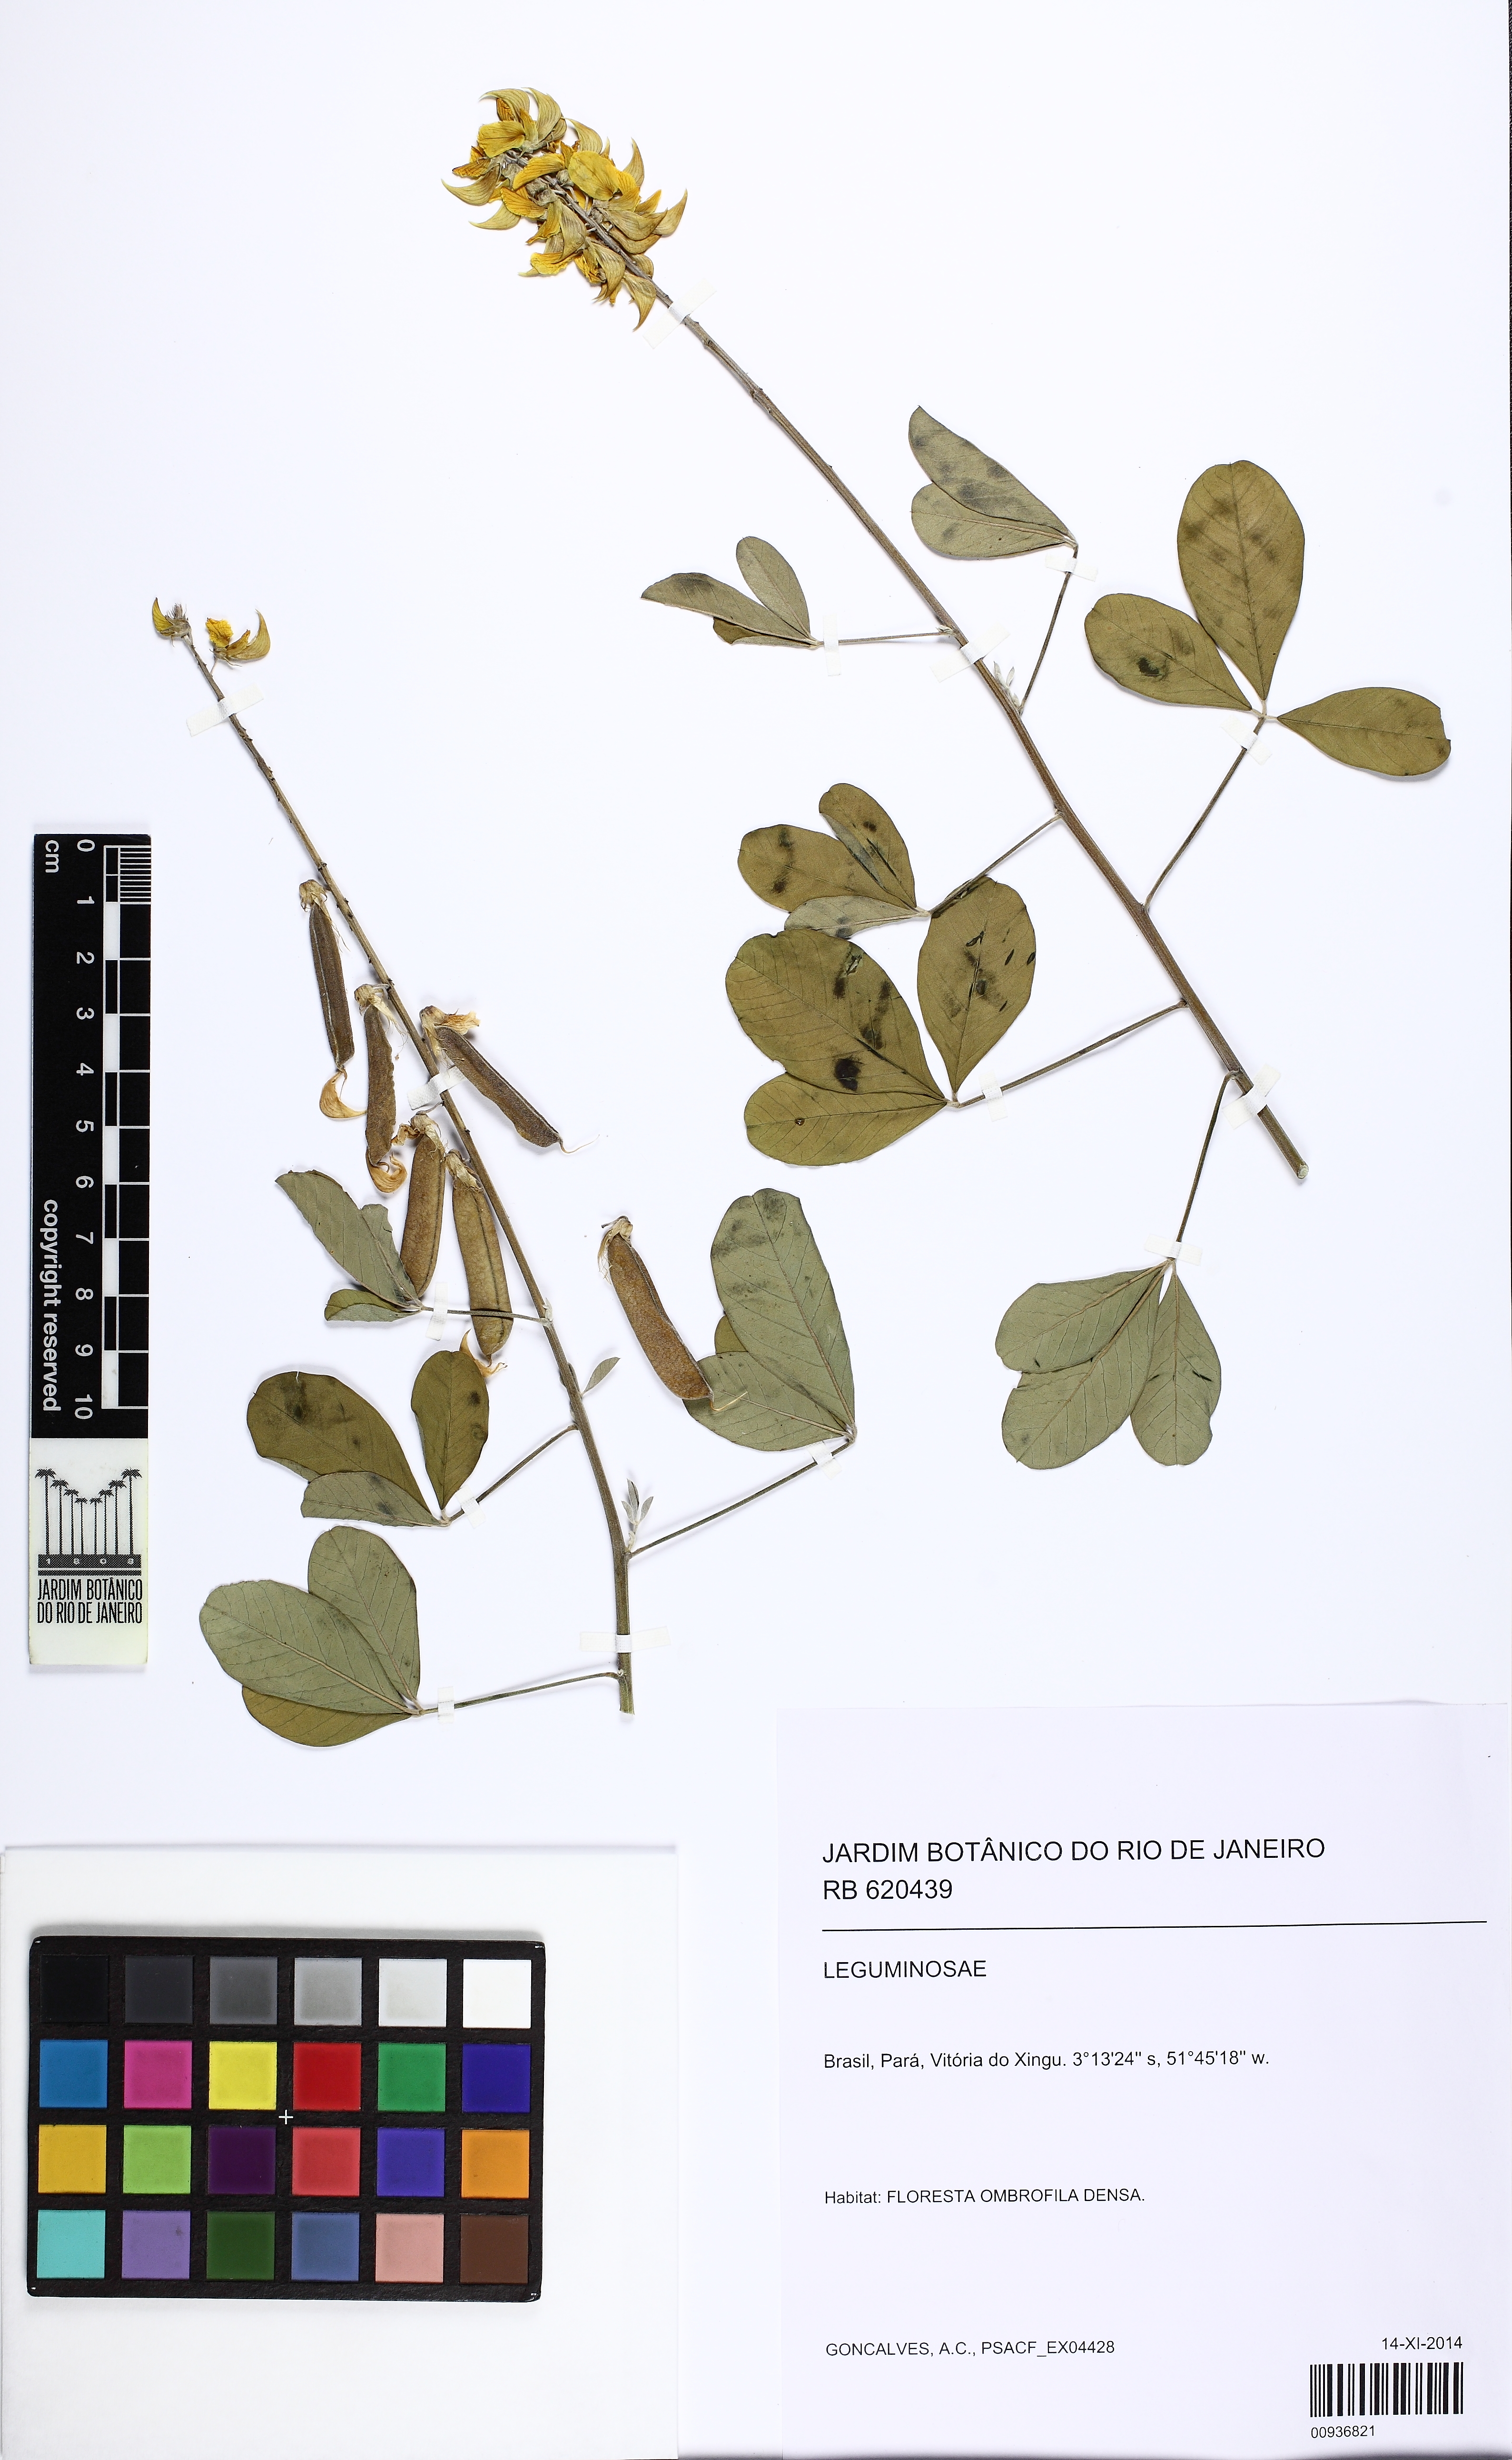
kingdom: Plantae
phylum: Tracheophyta
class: Magnoliopsida
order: Fabales
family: Fabaceae
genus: Crotalaria
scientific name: Crotalaria
